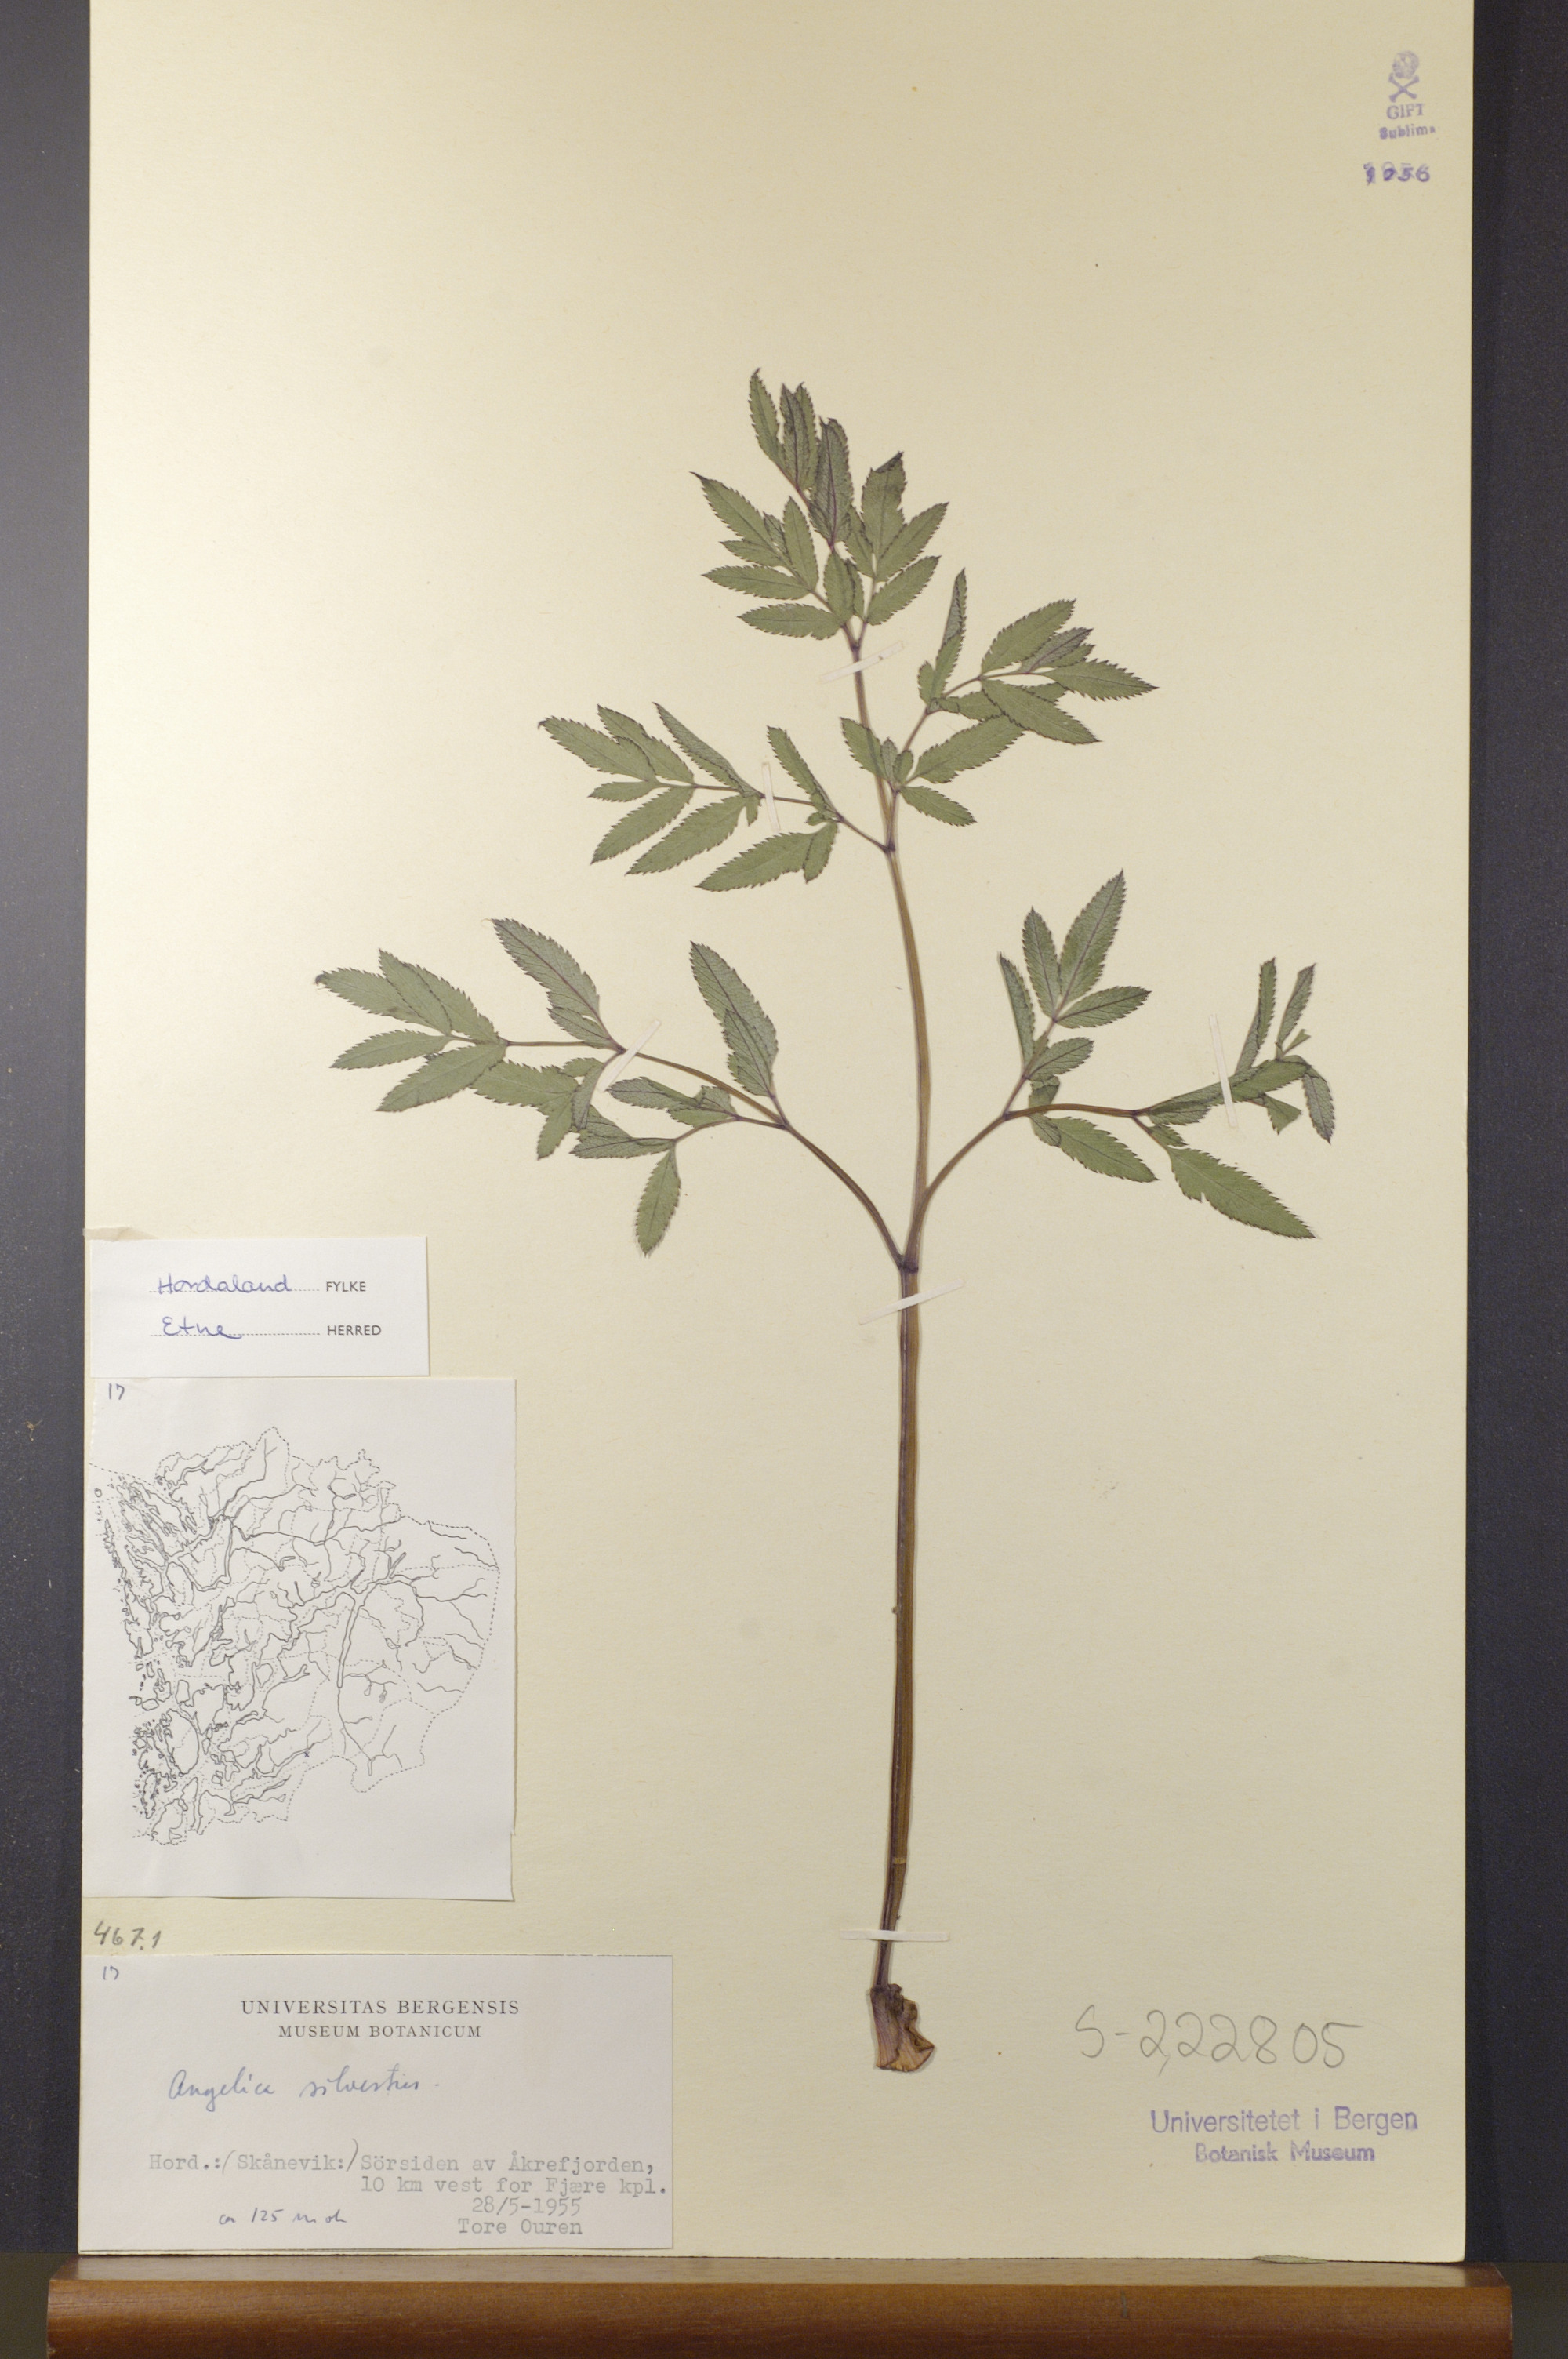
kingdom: Plantae
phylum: Tracheophyta
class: Magnoliopsida
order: Apiales
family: Apiaceae
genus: Angelica
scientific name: Angelica sylvestris
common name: Wild angelica
